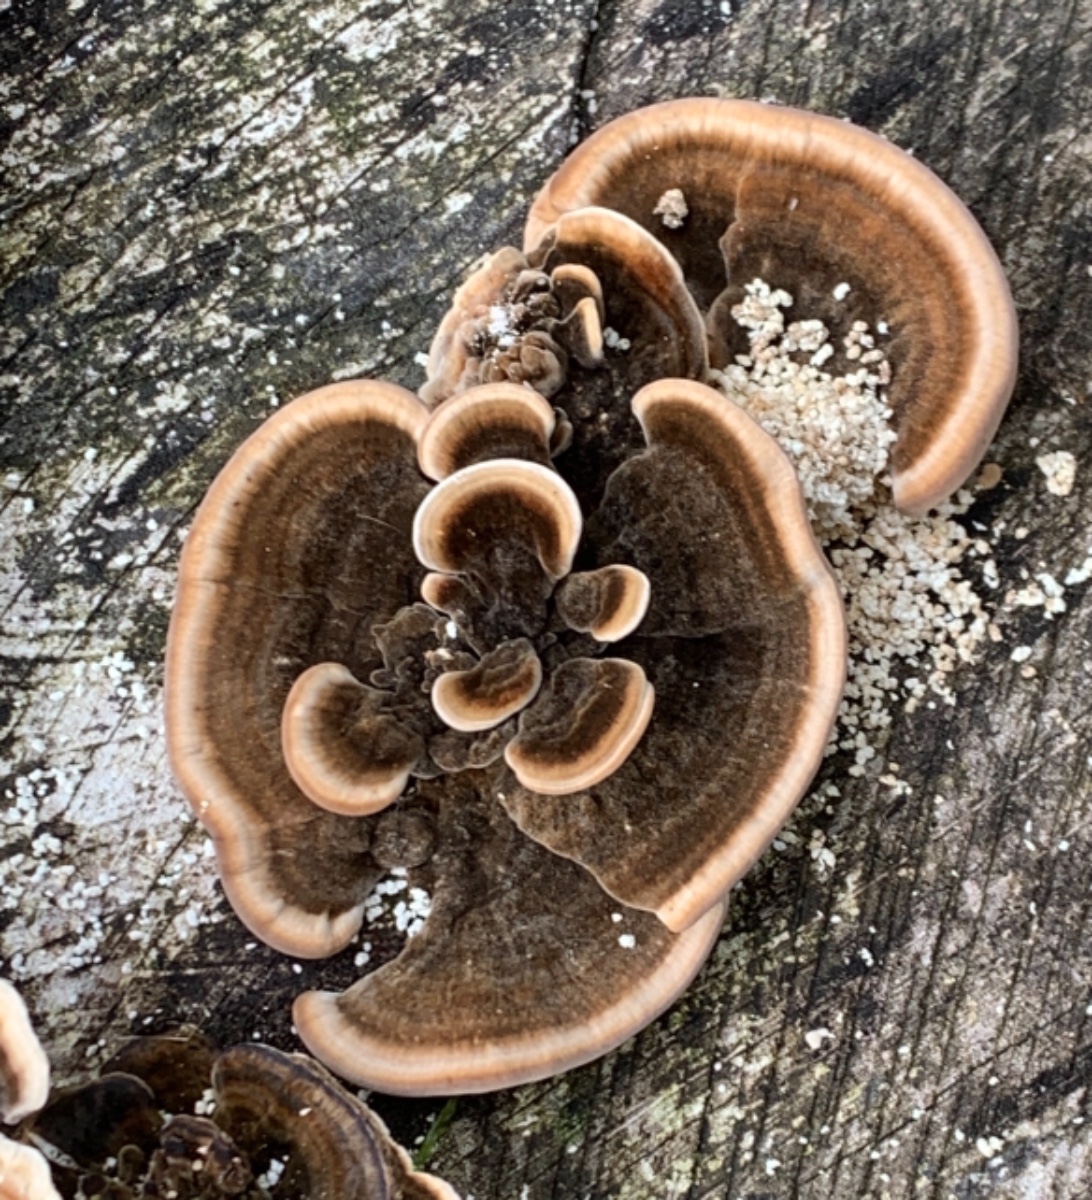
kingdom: Fungi
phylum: Basidiomycota
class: Agaricomycetes
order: Polyporales
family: Polyporaceae
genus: Trametes
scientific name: Trametes versicolor
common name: broget læderporesvamp
